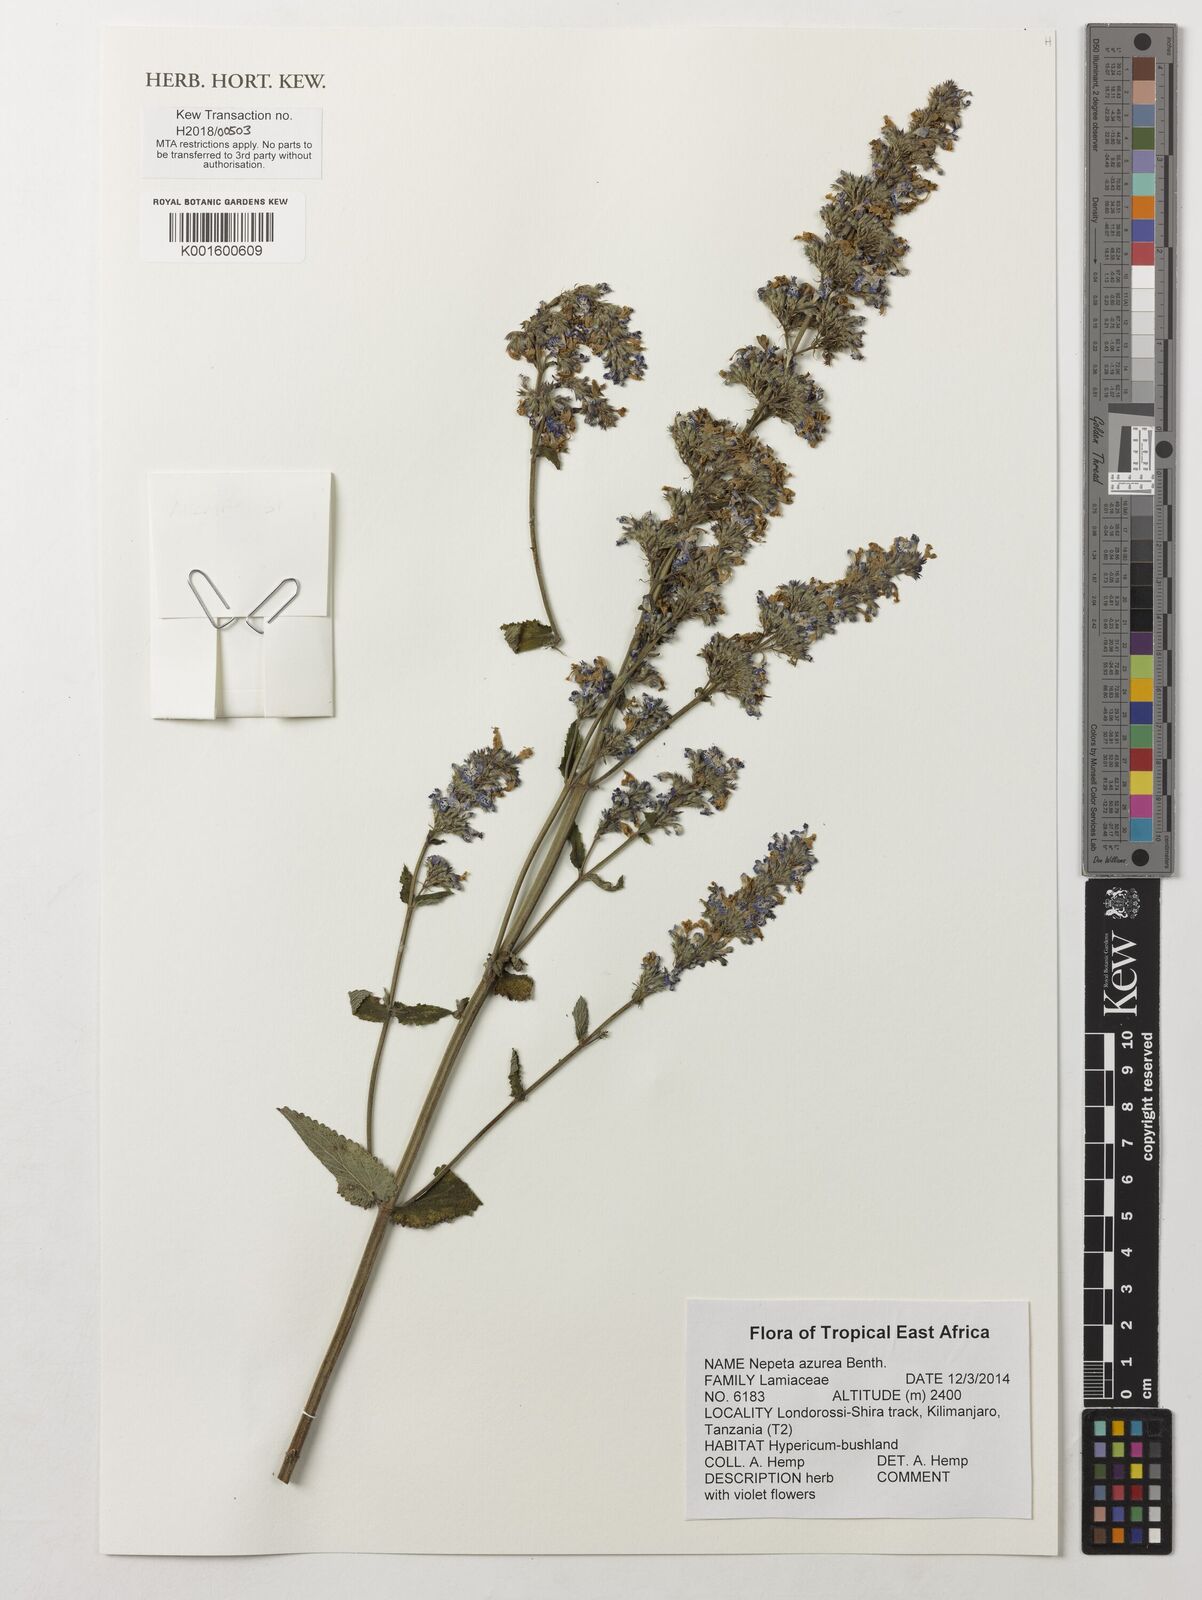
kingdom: Plantae
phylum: Tracheophyta
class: Magnoliopsida
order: Lamiales
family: Lamiaceae
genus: Nepeta
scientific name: Nepeta azurea
